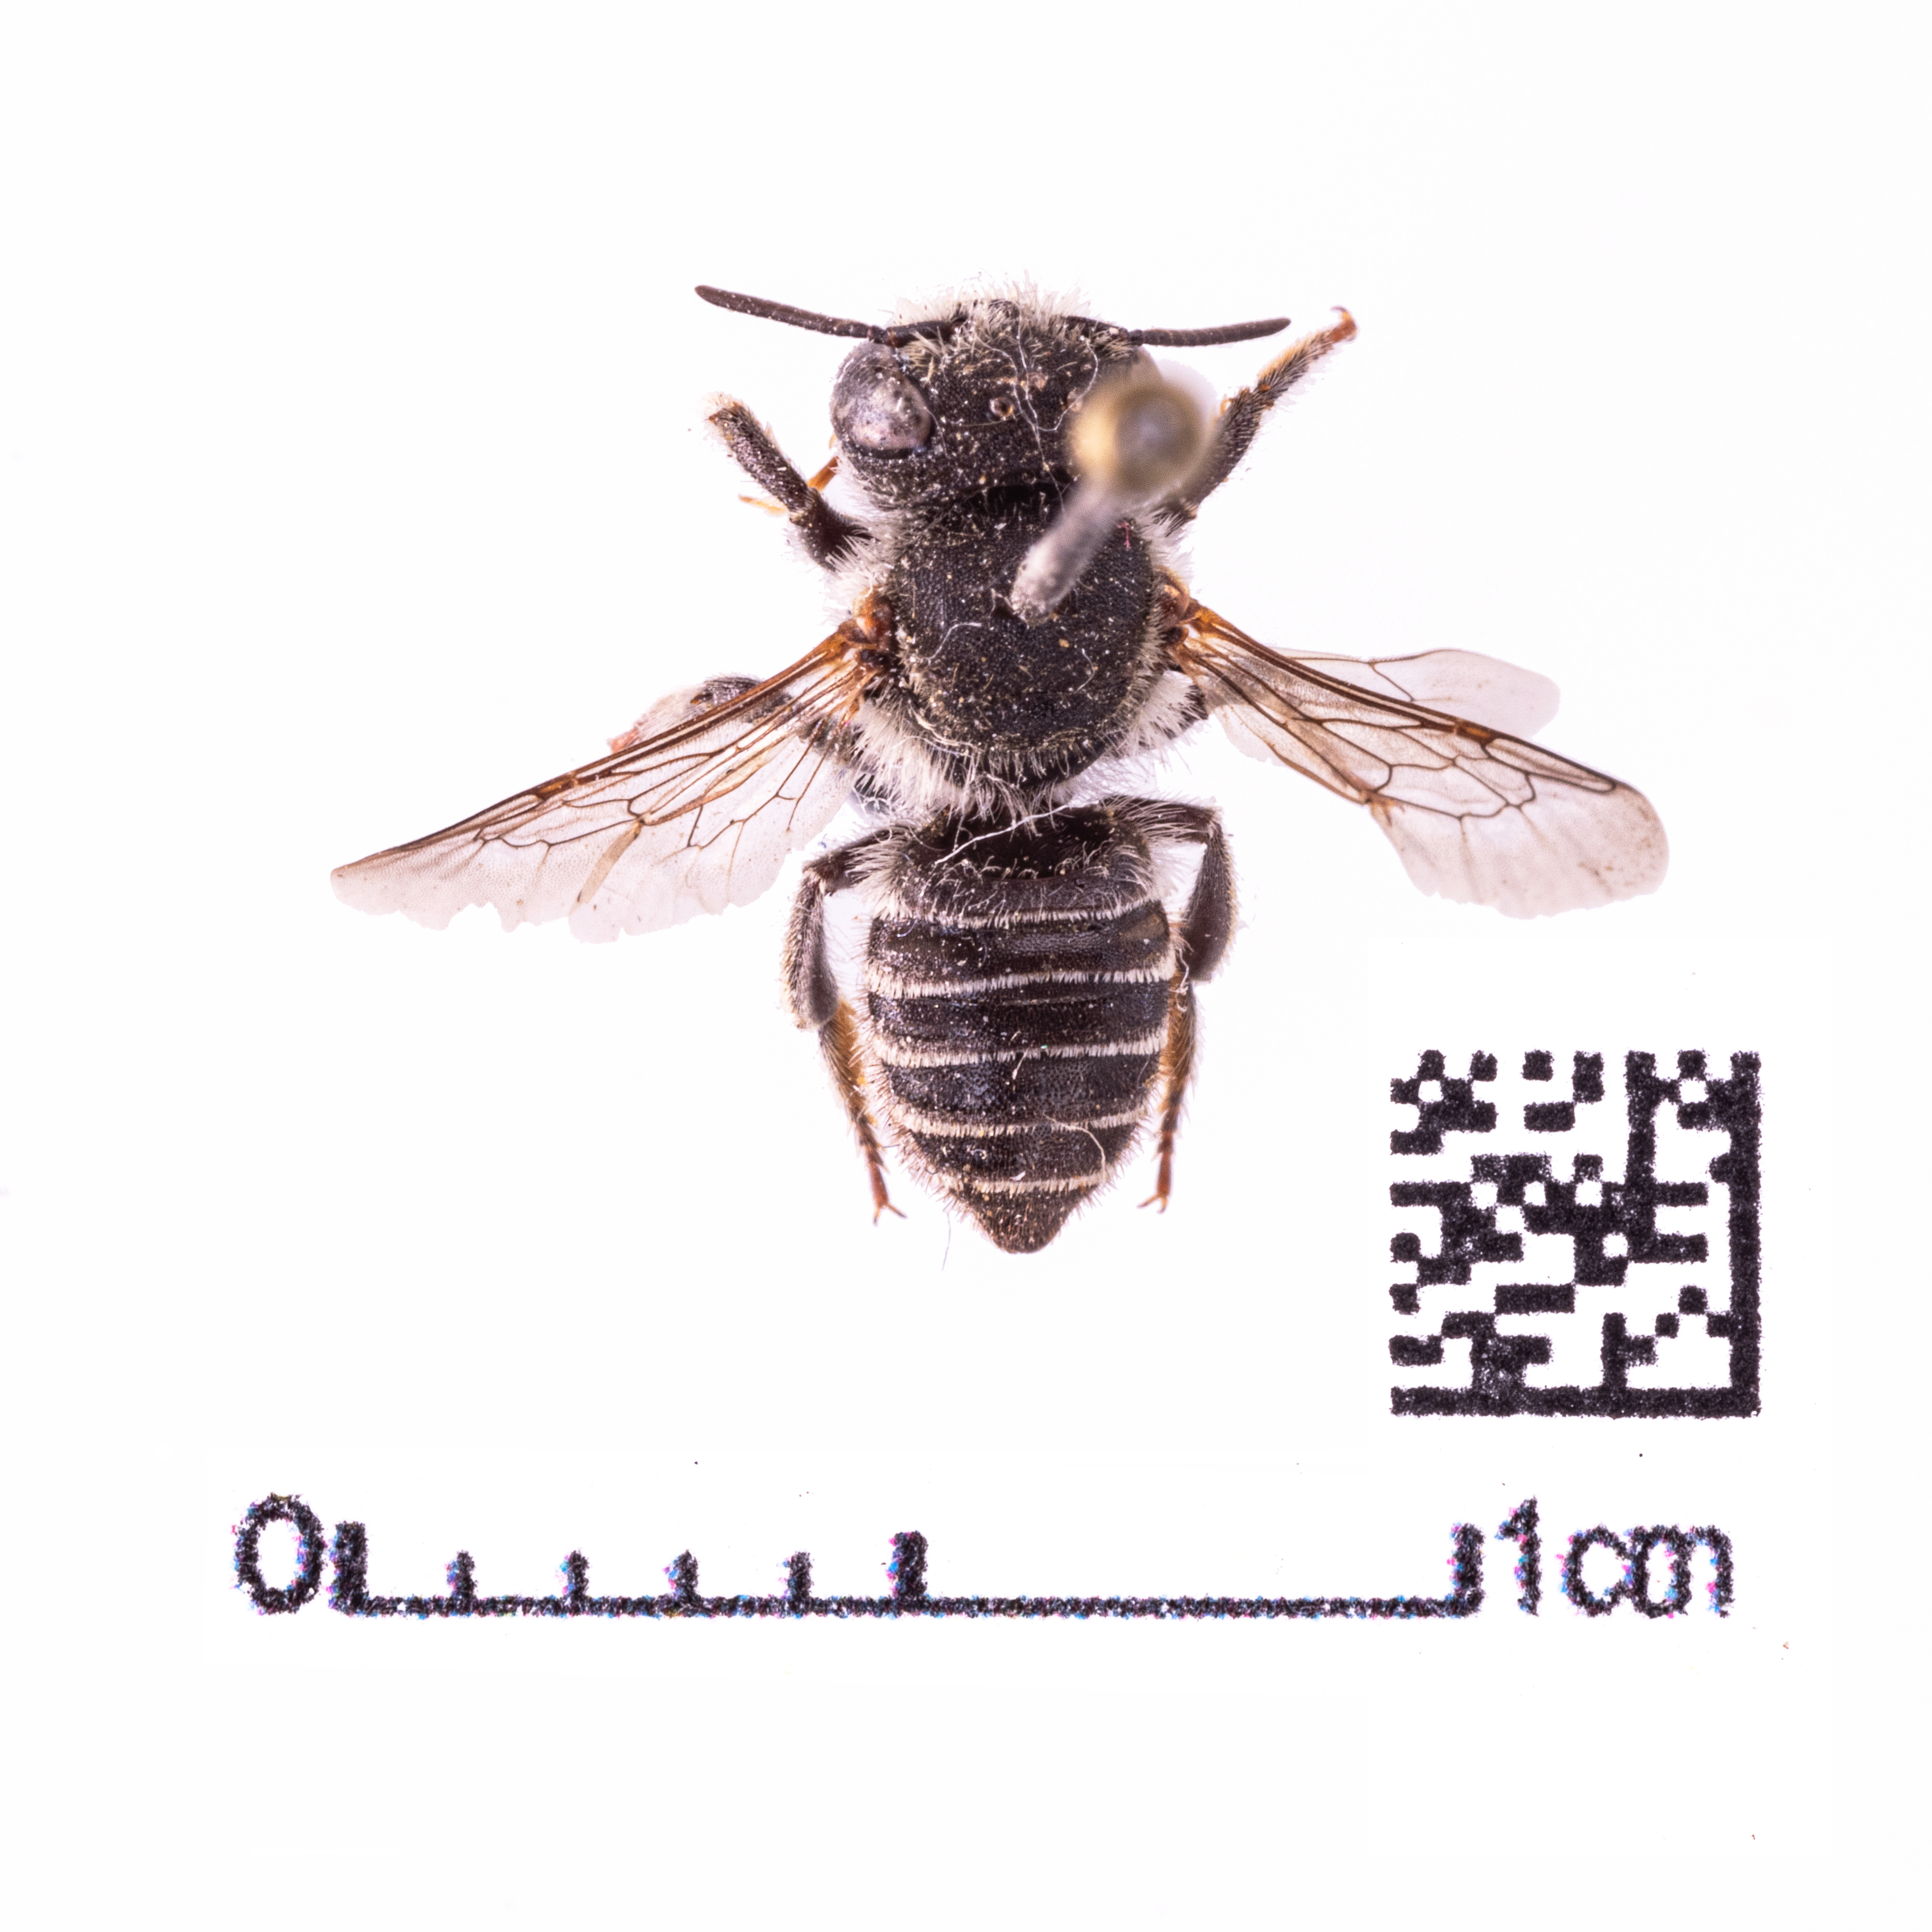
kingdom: Animalia
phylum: Arthropoda
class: Insecta
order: Hymenoptera
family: Megachilidae
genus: Megachile
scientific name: Megachile rotundata
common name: Alfalfa leafcutting bee
